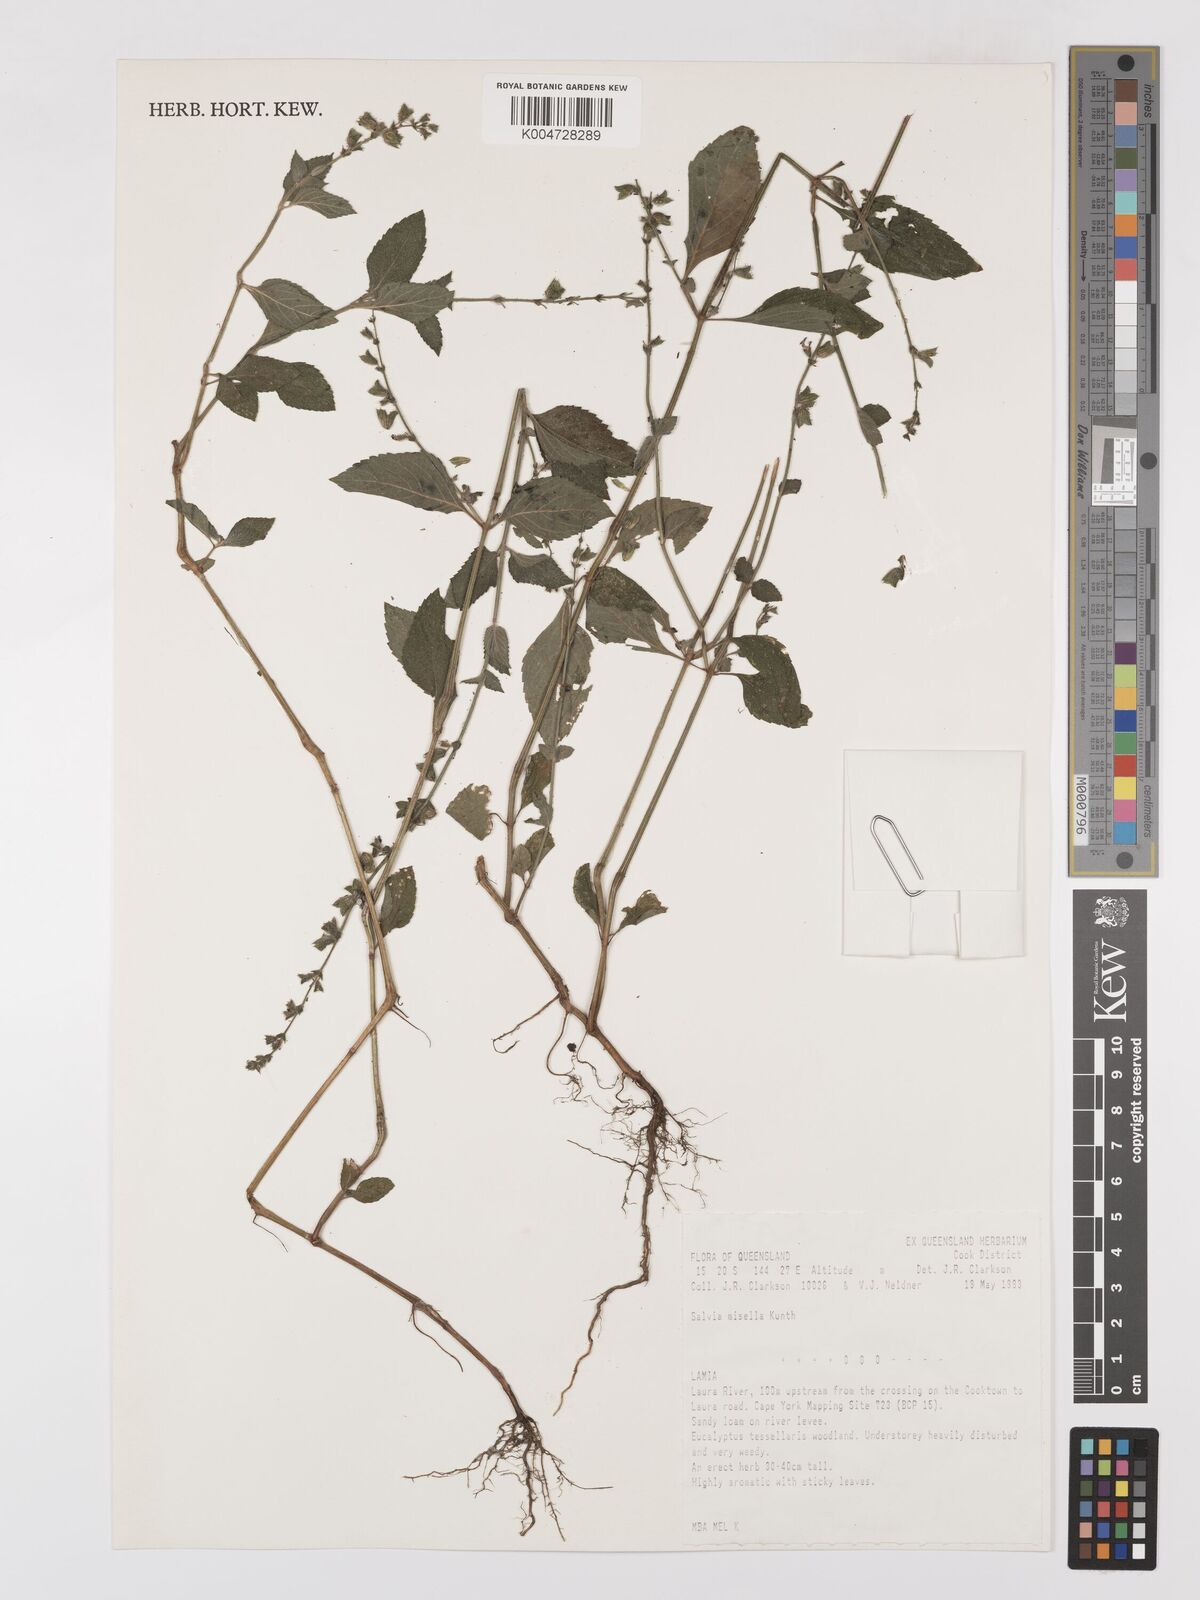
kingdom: Plantae
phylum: Tracheophyta
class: Magnoliopsida
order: Lamiales
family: Lamiaceae
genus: Salvia
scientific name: Salvia misella
